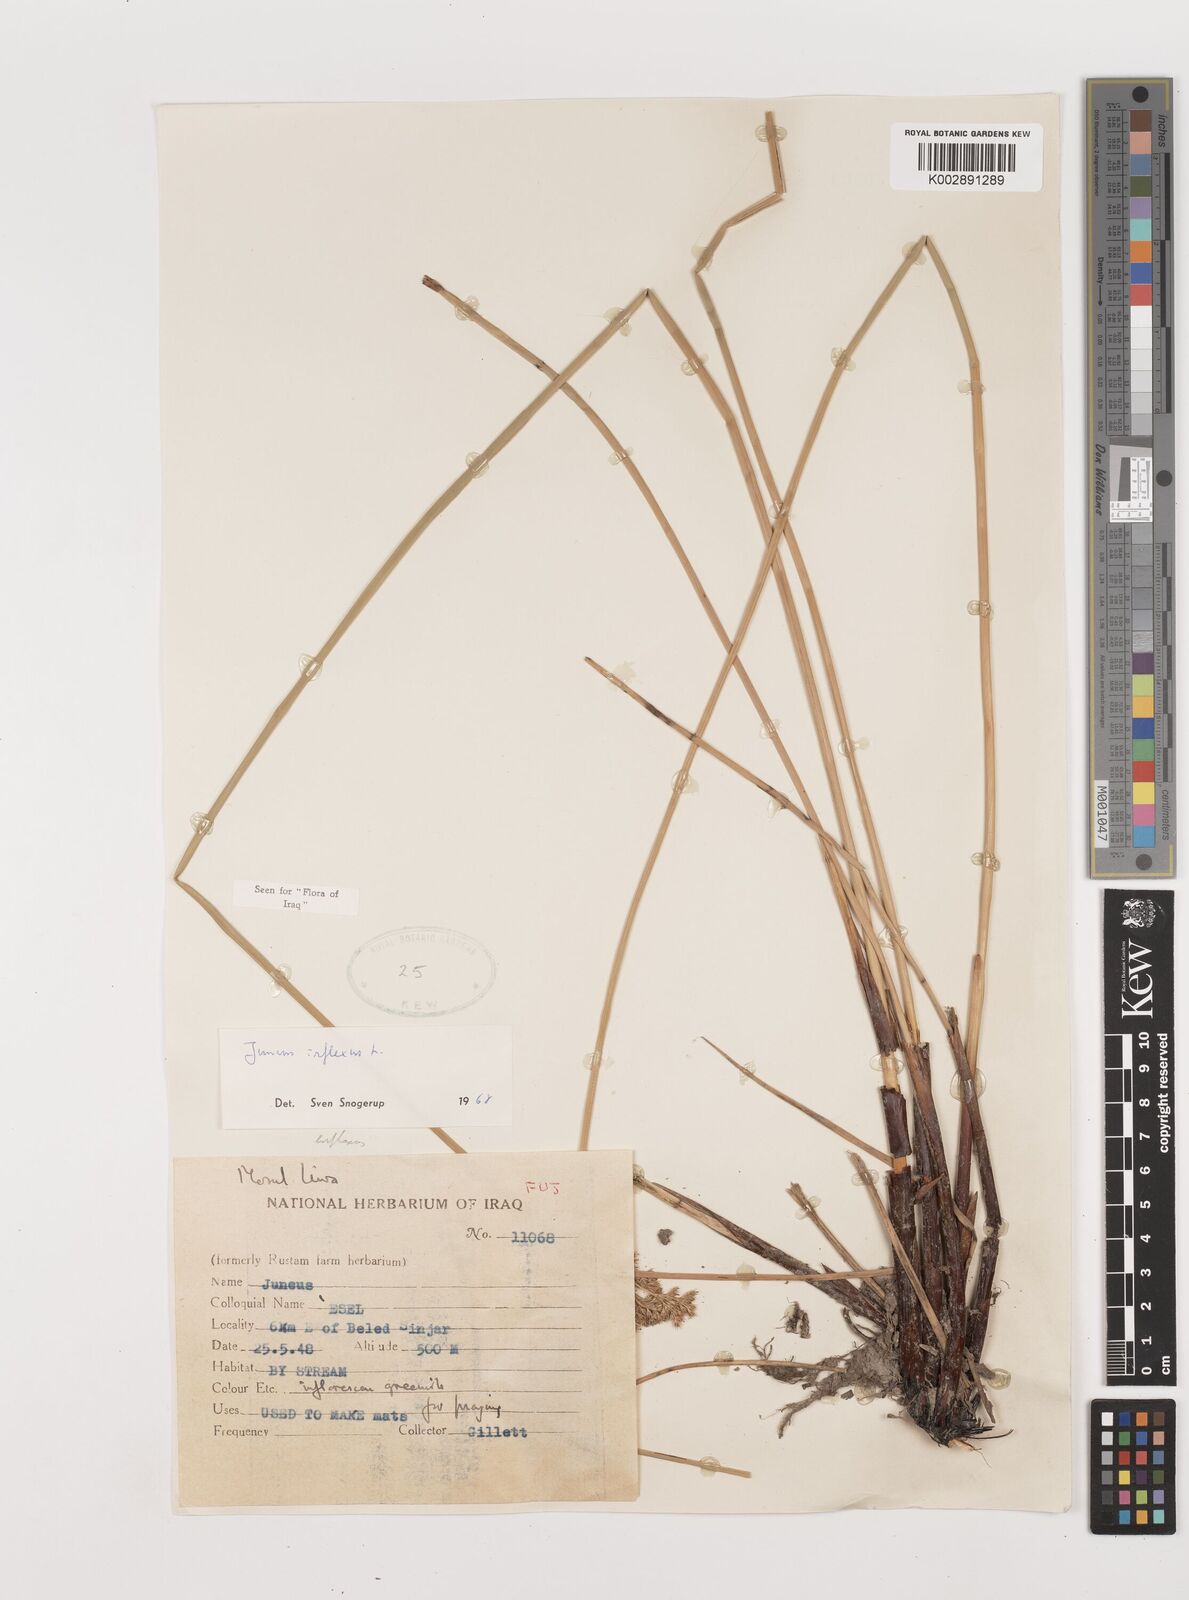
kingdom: Plantae
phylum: Tracheophyta
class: Liliopsida
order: Poales
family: Juncaceae
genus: Juncus
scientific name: Juncus inflexus
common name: Hard rush
